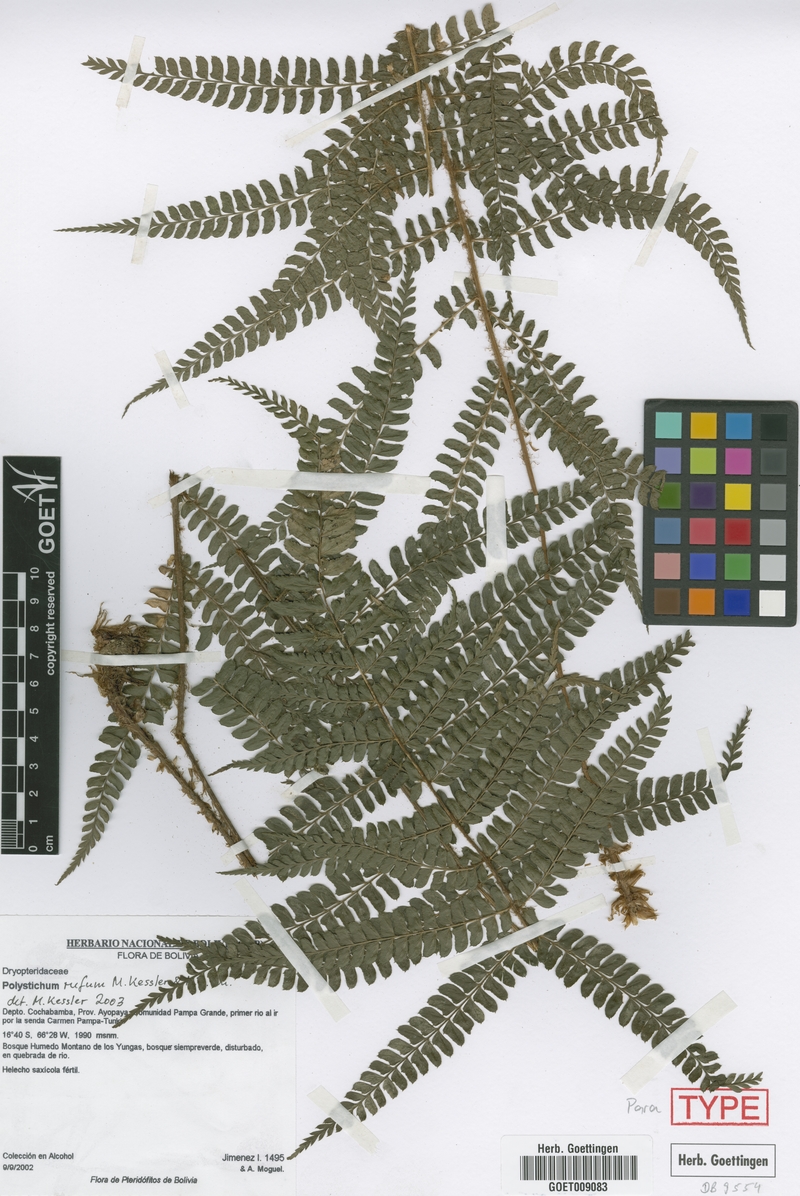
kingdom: Plantae
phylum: Tracheophyta
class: Polypodiopsida
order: Polypodiales
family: Dryopteridaceae
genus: Polystichum
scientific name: Polystichum rufum
